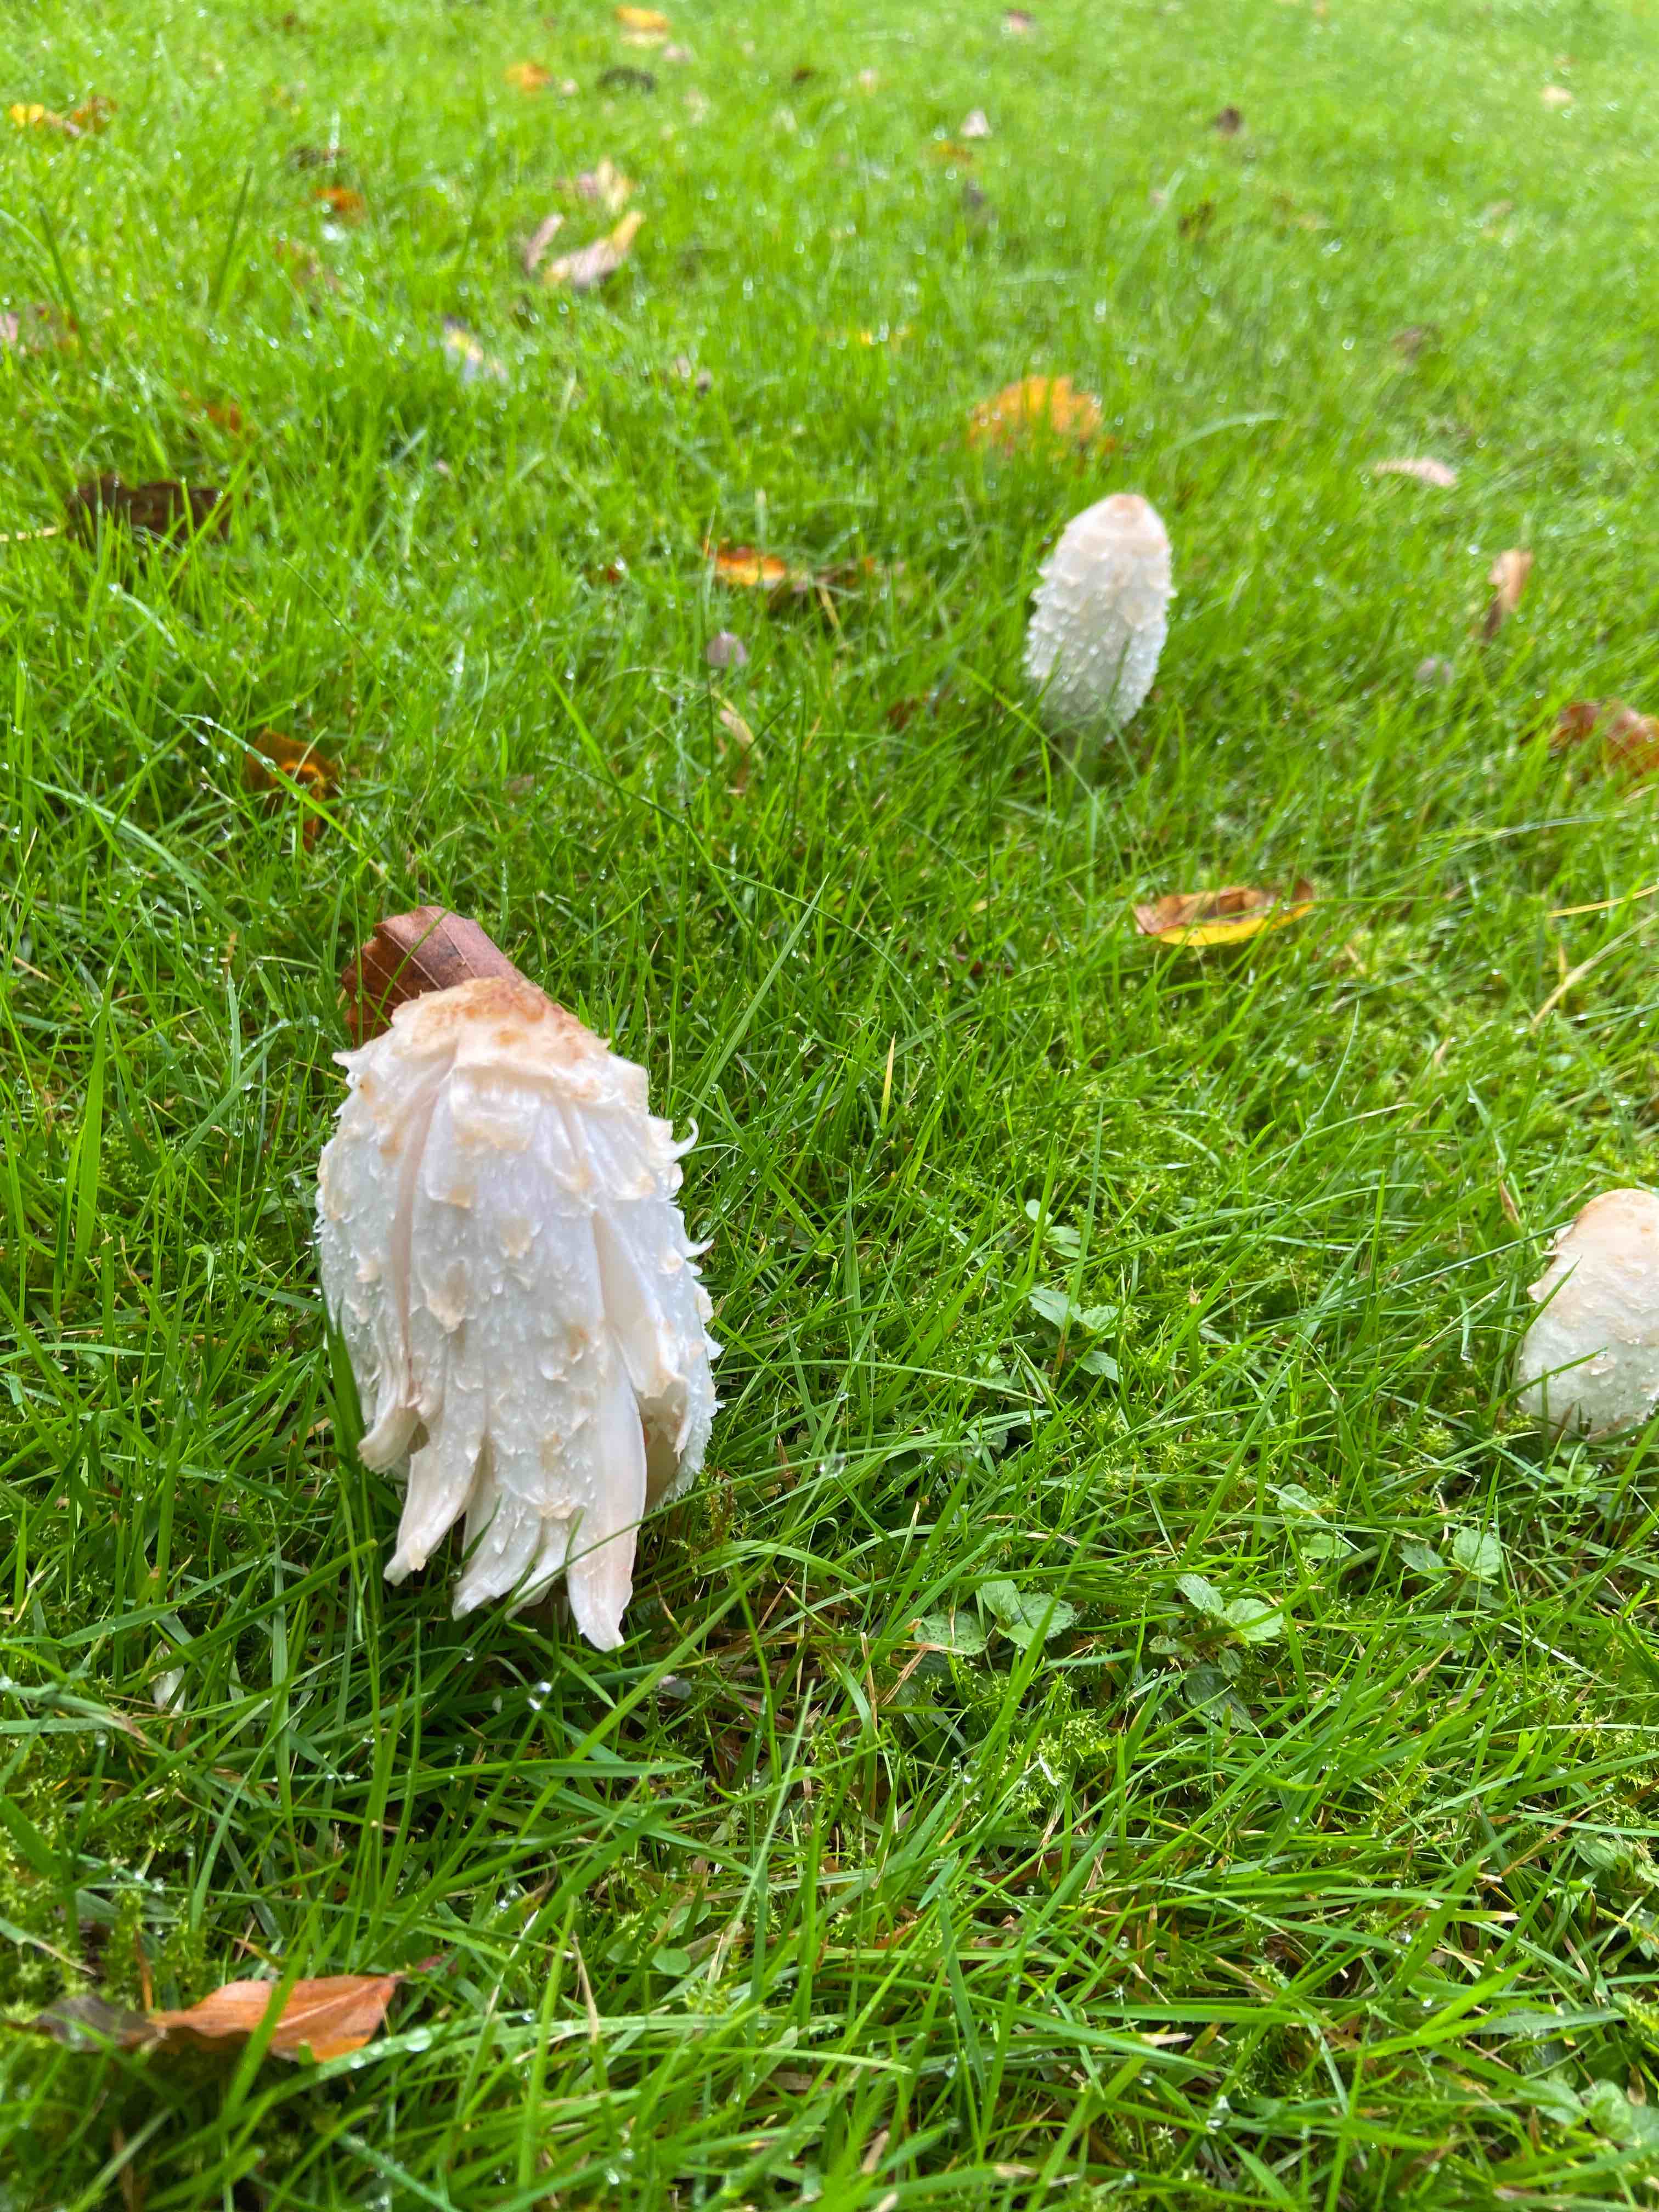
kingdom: Fungi
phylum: Basidiomycota
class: Agaricomycetes
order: Agaricales
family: Agaricaceae
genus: Coprinus
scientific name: Coprinus comatus
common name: stor parykhat
